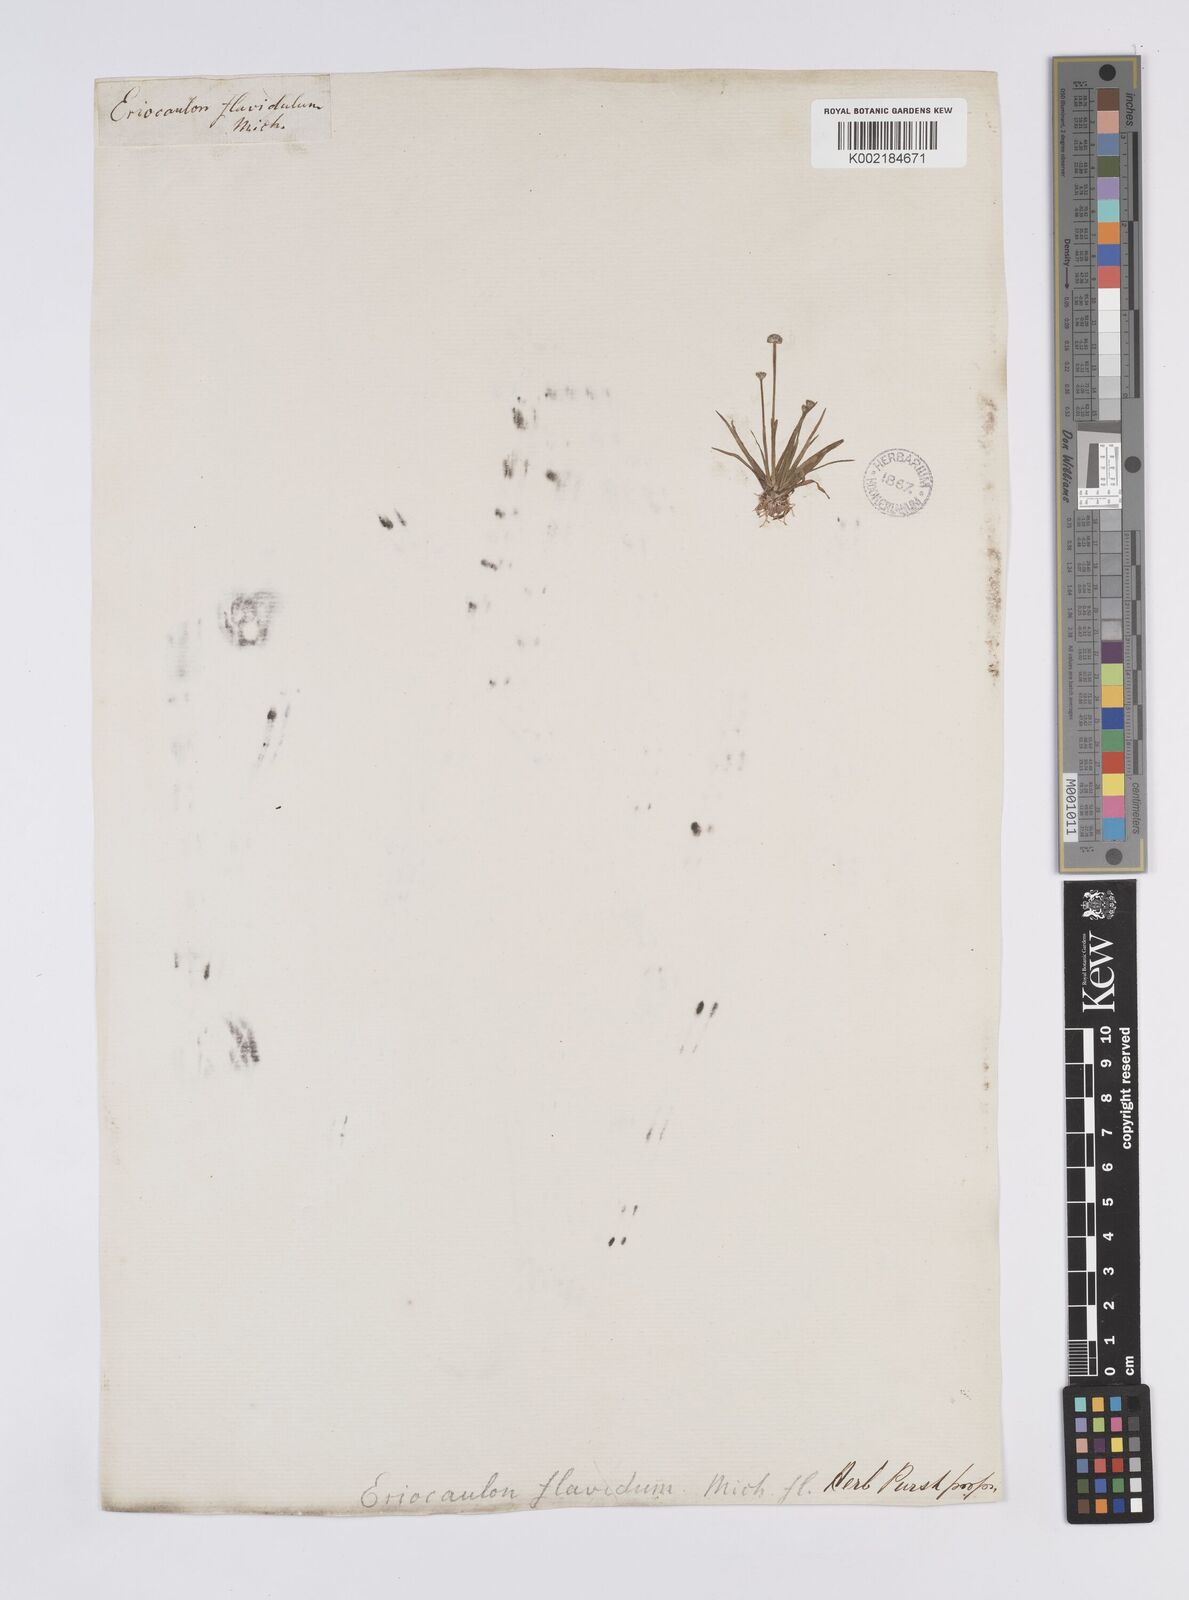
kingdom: Plantae
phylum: Tracheophyta
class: Liliopsida
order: Poales
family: Eriocaulaceae
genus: Eriocaulon
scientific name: Eriocaulon aquaticum
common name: Pipewort
